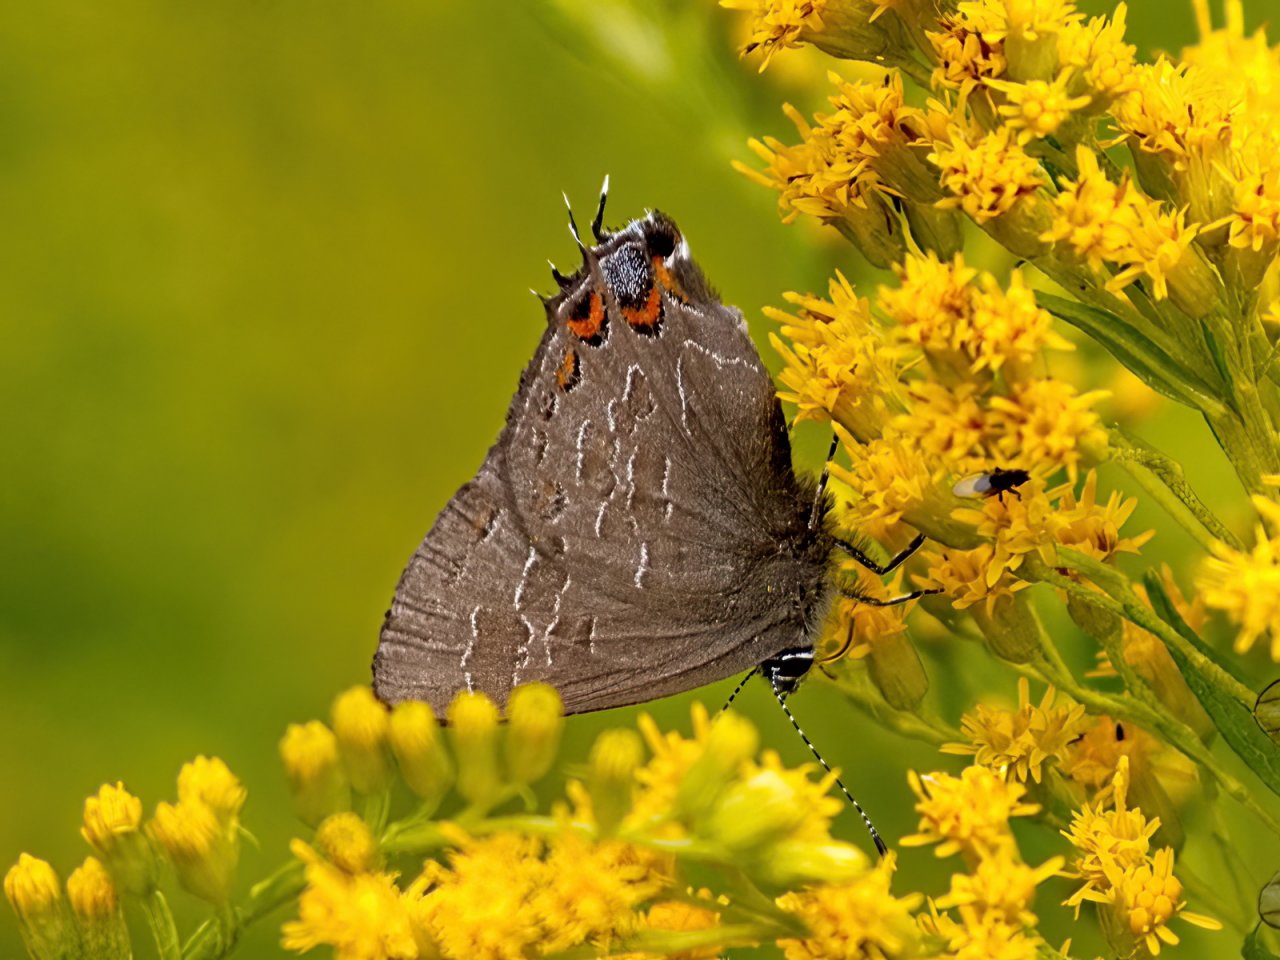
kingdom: Animalia
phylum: Arthropoda
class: Insecta
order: Lepidoptera
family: Lycaenidae
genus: Satyrium
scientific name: Satyrium liparops
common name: Striped Hairstreak
